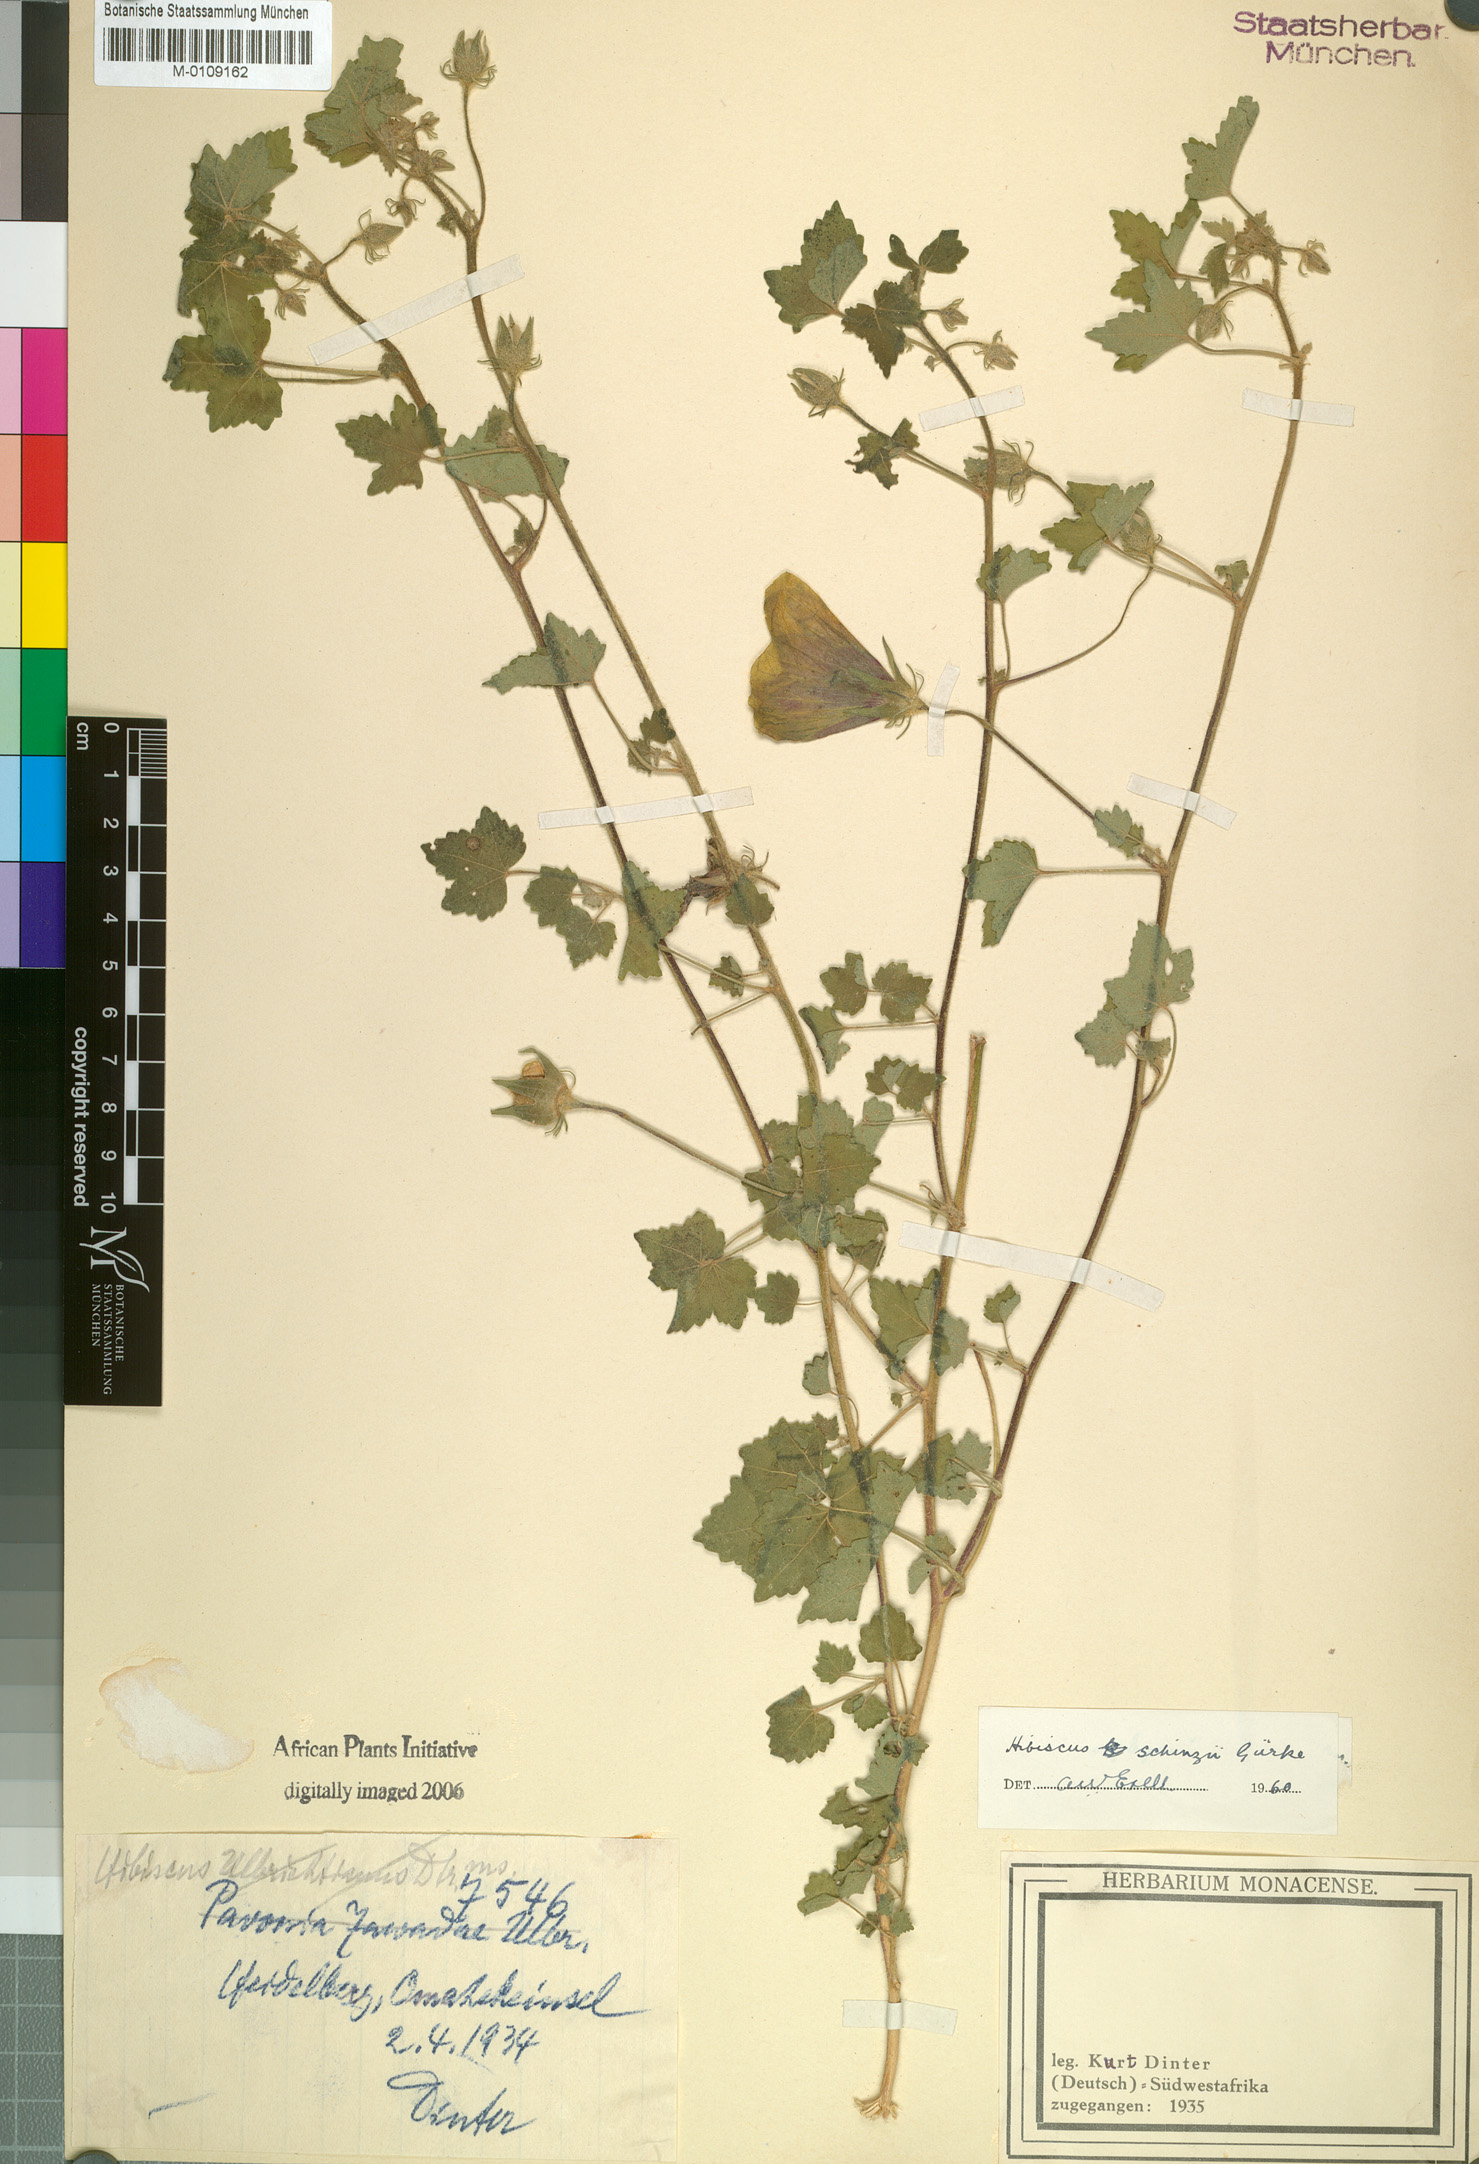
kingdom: Plantae
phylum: Tracheophyta
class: Magnoliopsida
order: Malvales
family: Malvaceae
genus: Hibiscus
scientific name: Hibiscus schinzii
